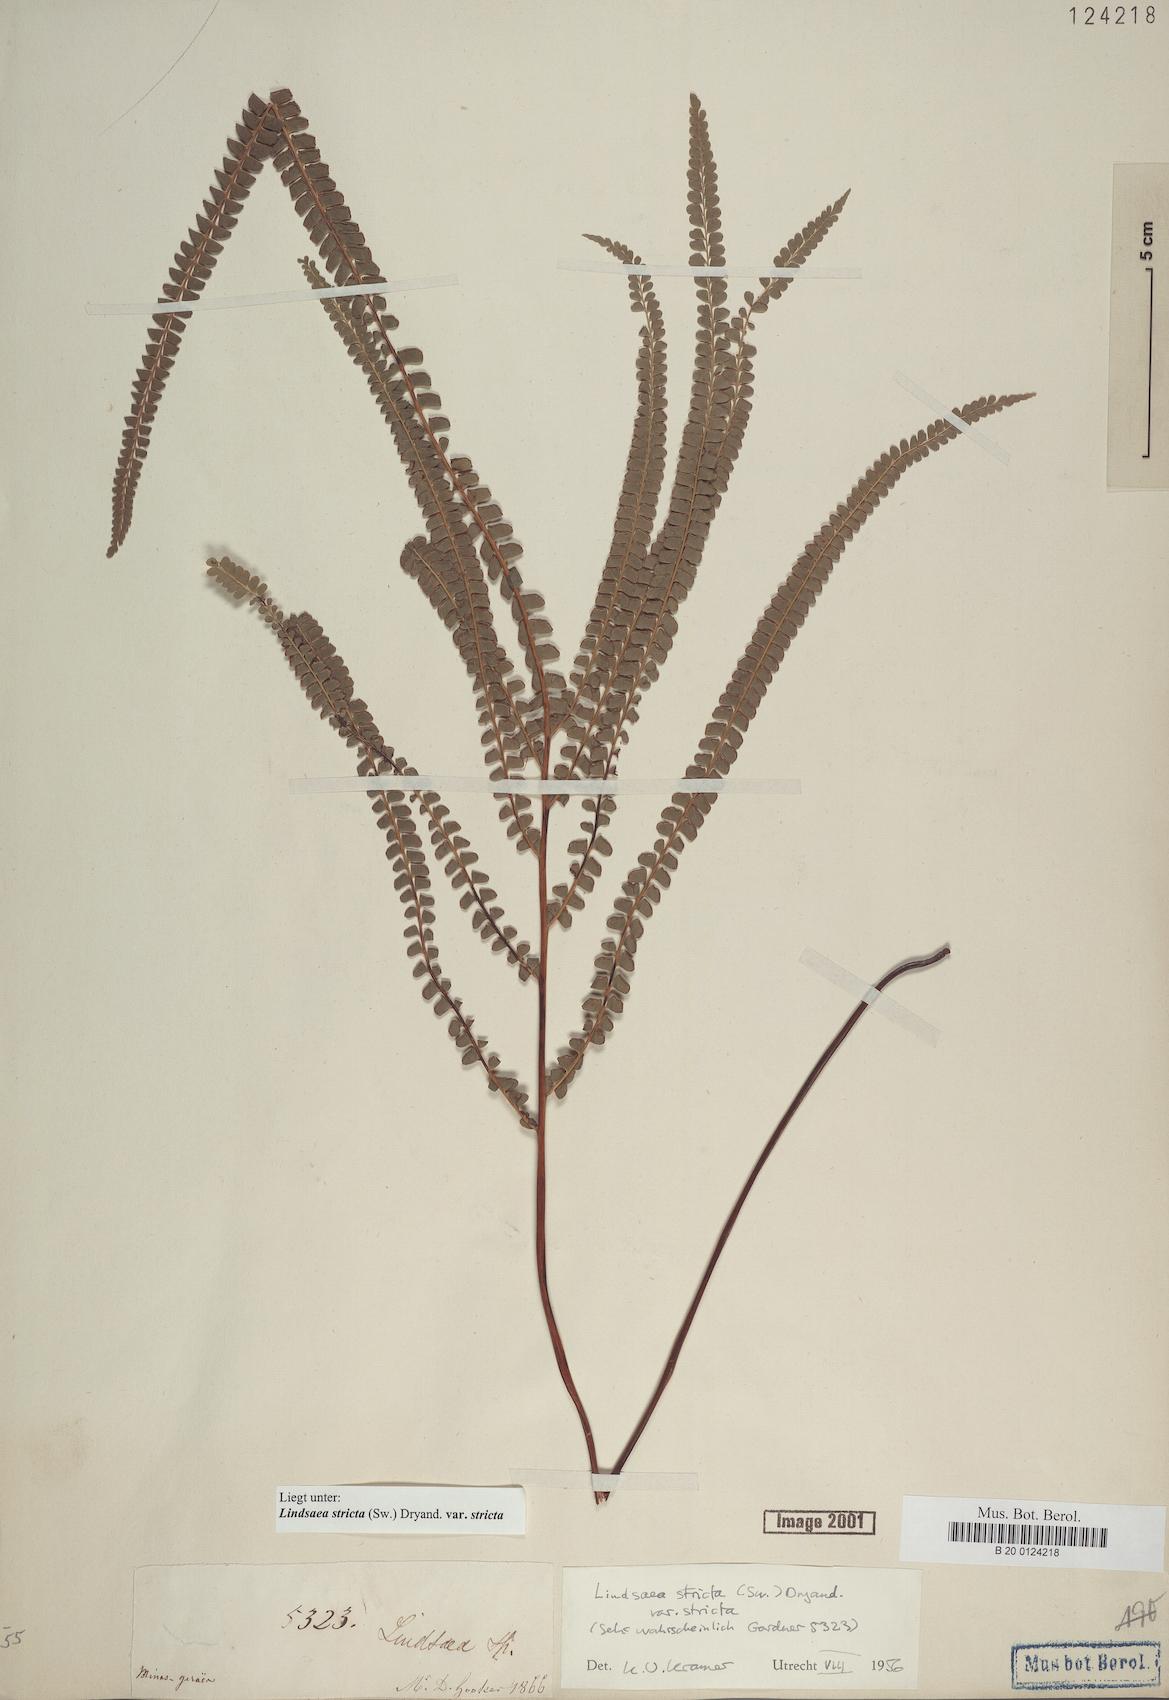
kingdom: Plantae
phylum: Tracheophyta
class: Polypodiopsida
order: Polypodiales
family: Lindsaeaceae
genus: Lindsaea
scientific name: Lindsaea stricta
